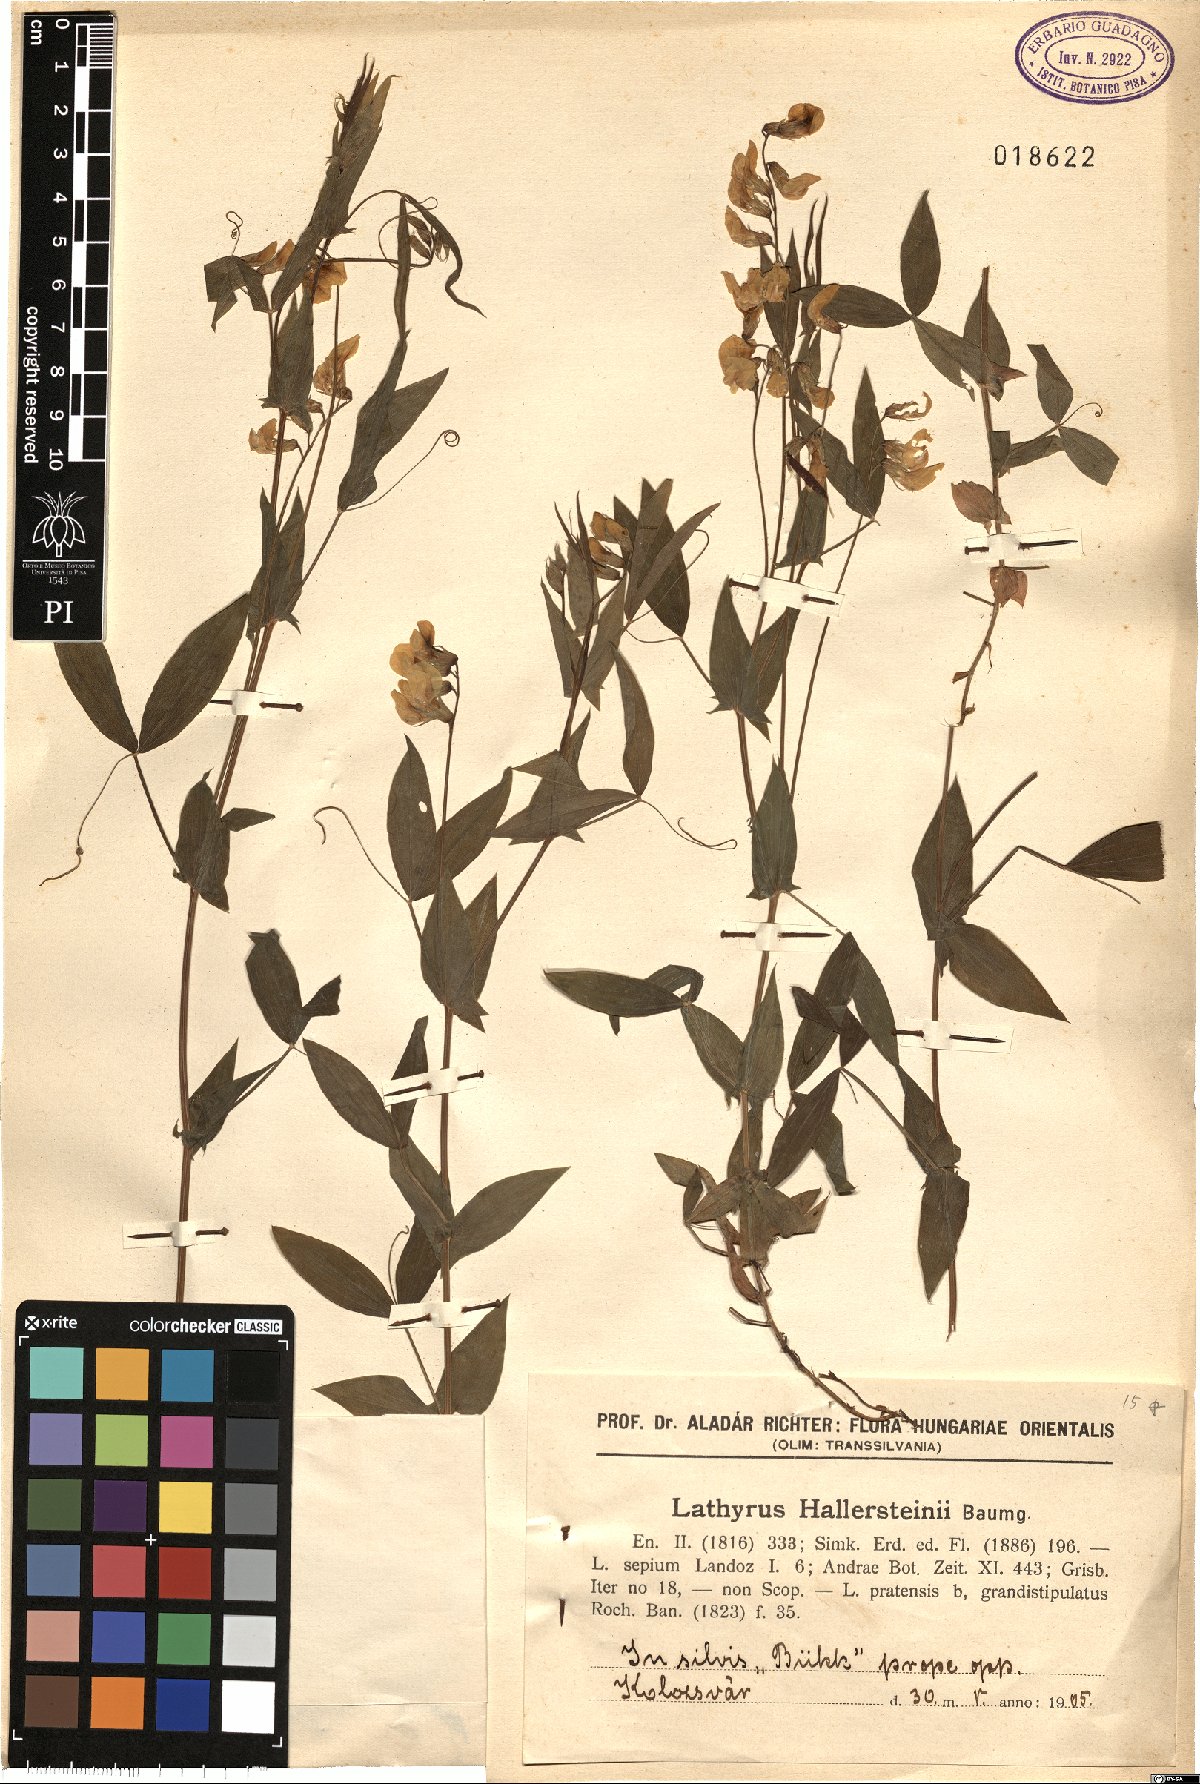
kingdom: Plantae
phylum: Tracheophyta
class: Magnoliopsida
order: Fabales
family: Fabaceae
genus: Lathyrus
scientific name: Lathyrus hallersteinii
